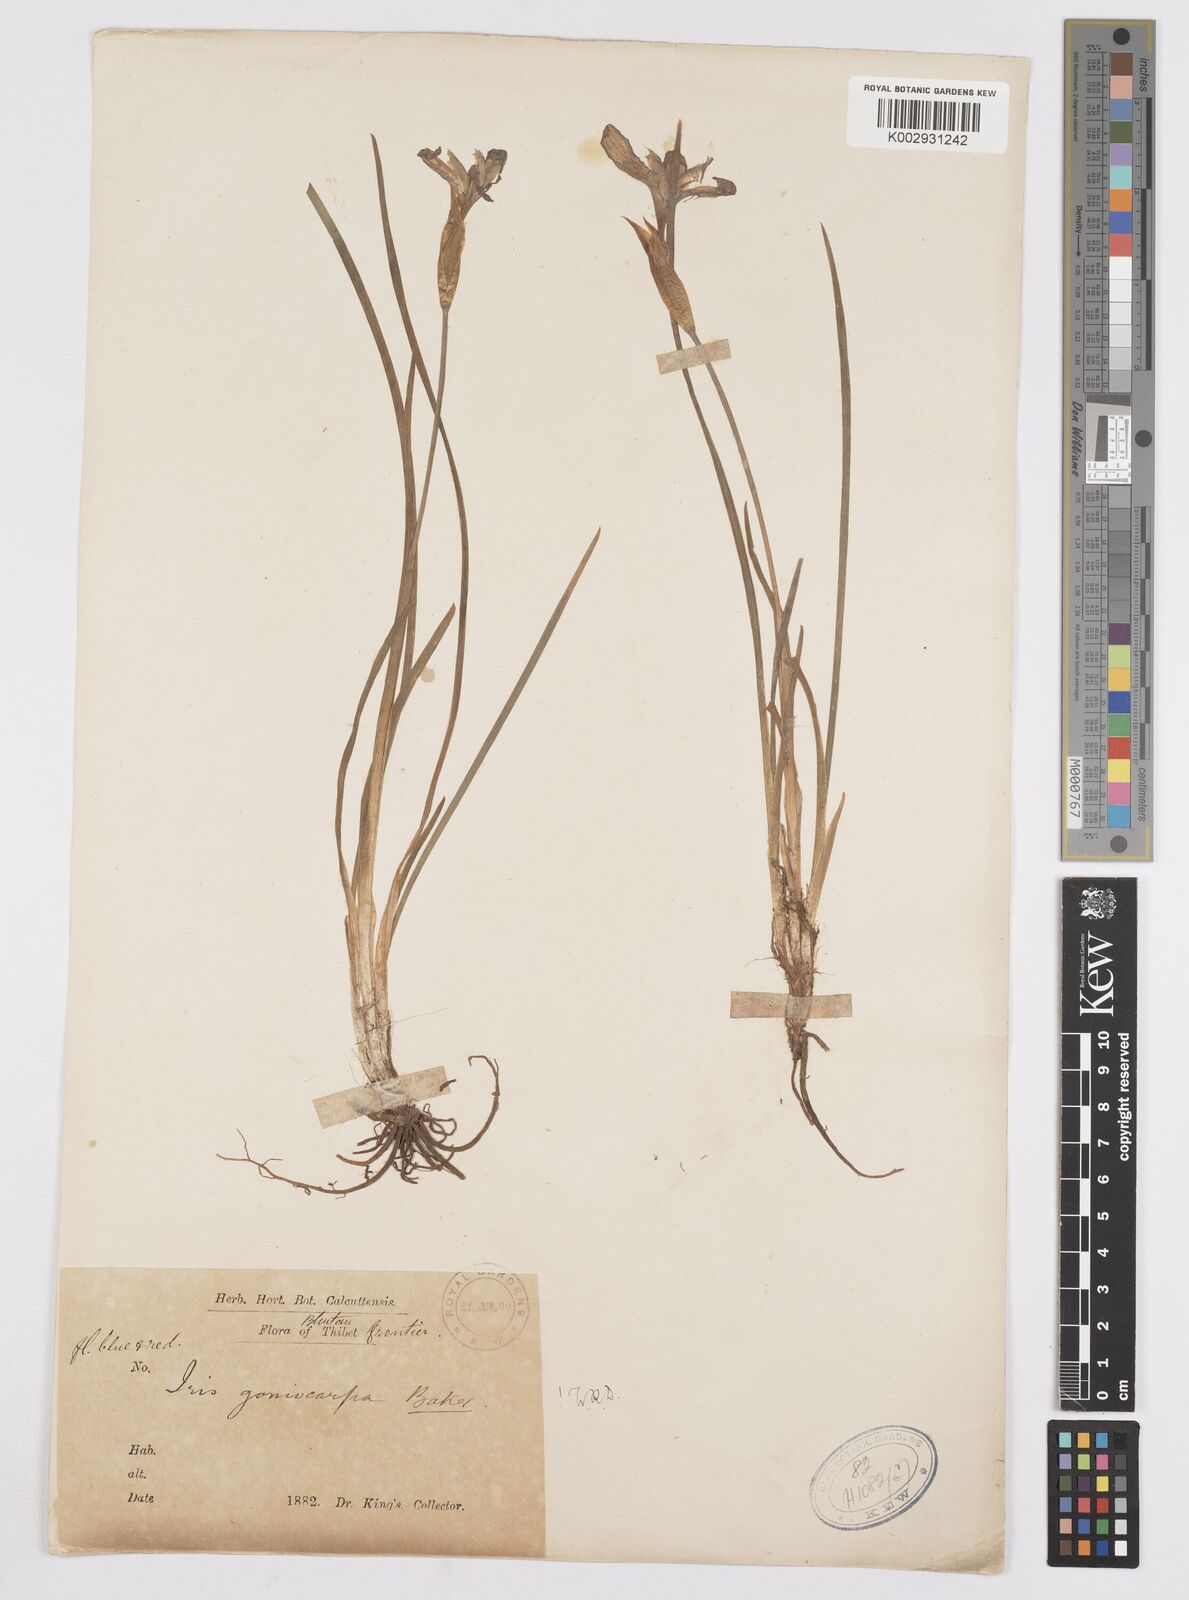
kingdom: Plantae
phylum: Tracheophyta
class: Liliopsida
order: Asparagales
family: Iridaceae
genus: Iris
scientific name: Iris goniocarpa
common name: Angular-fruit iris
